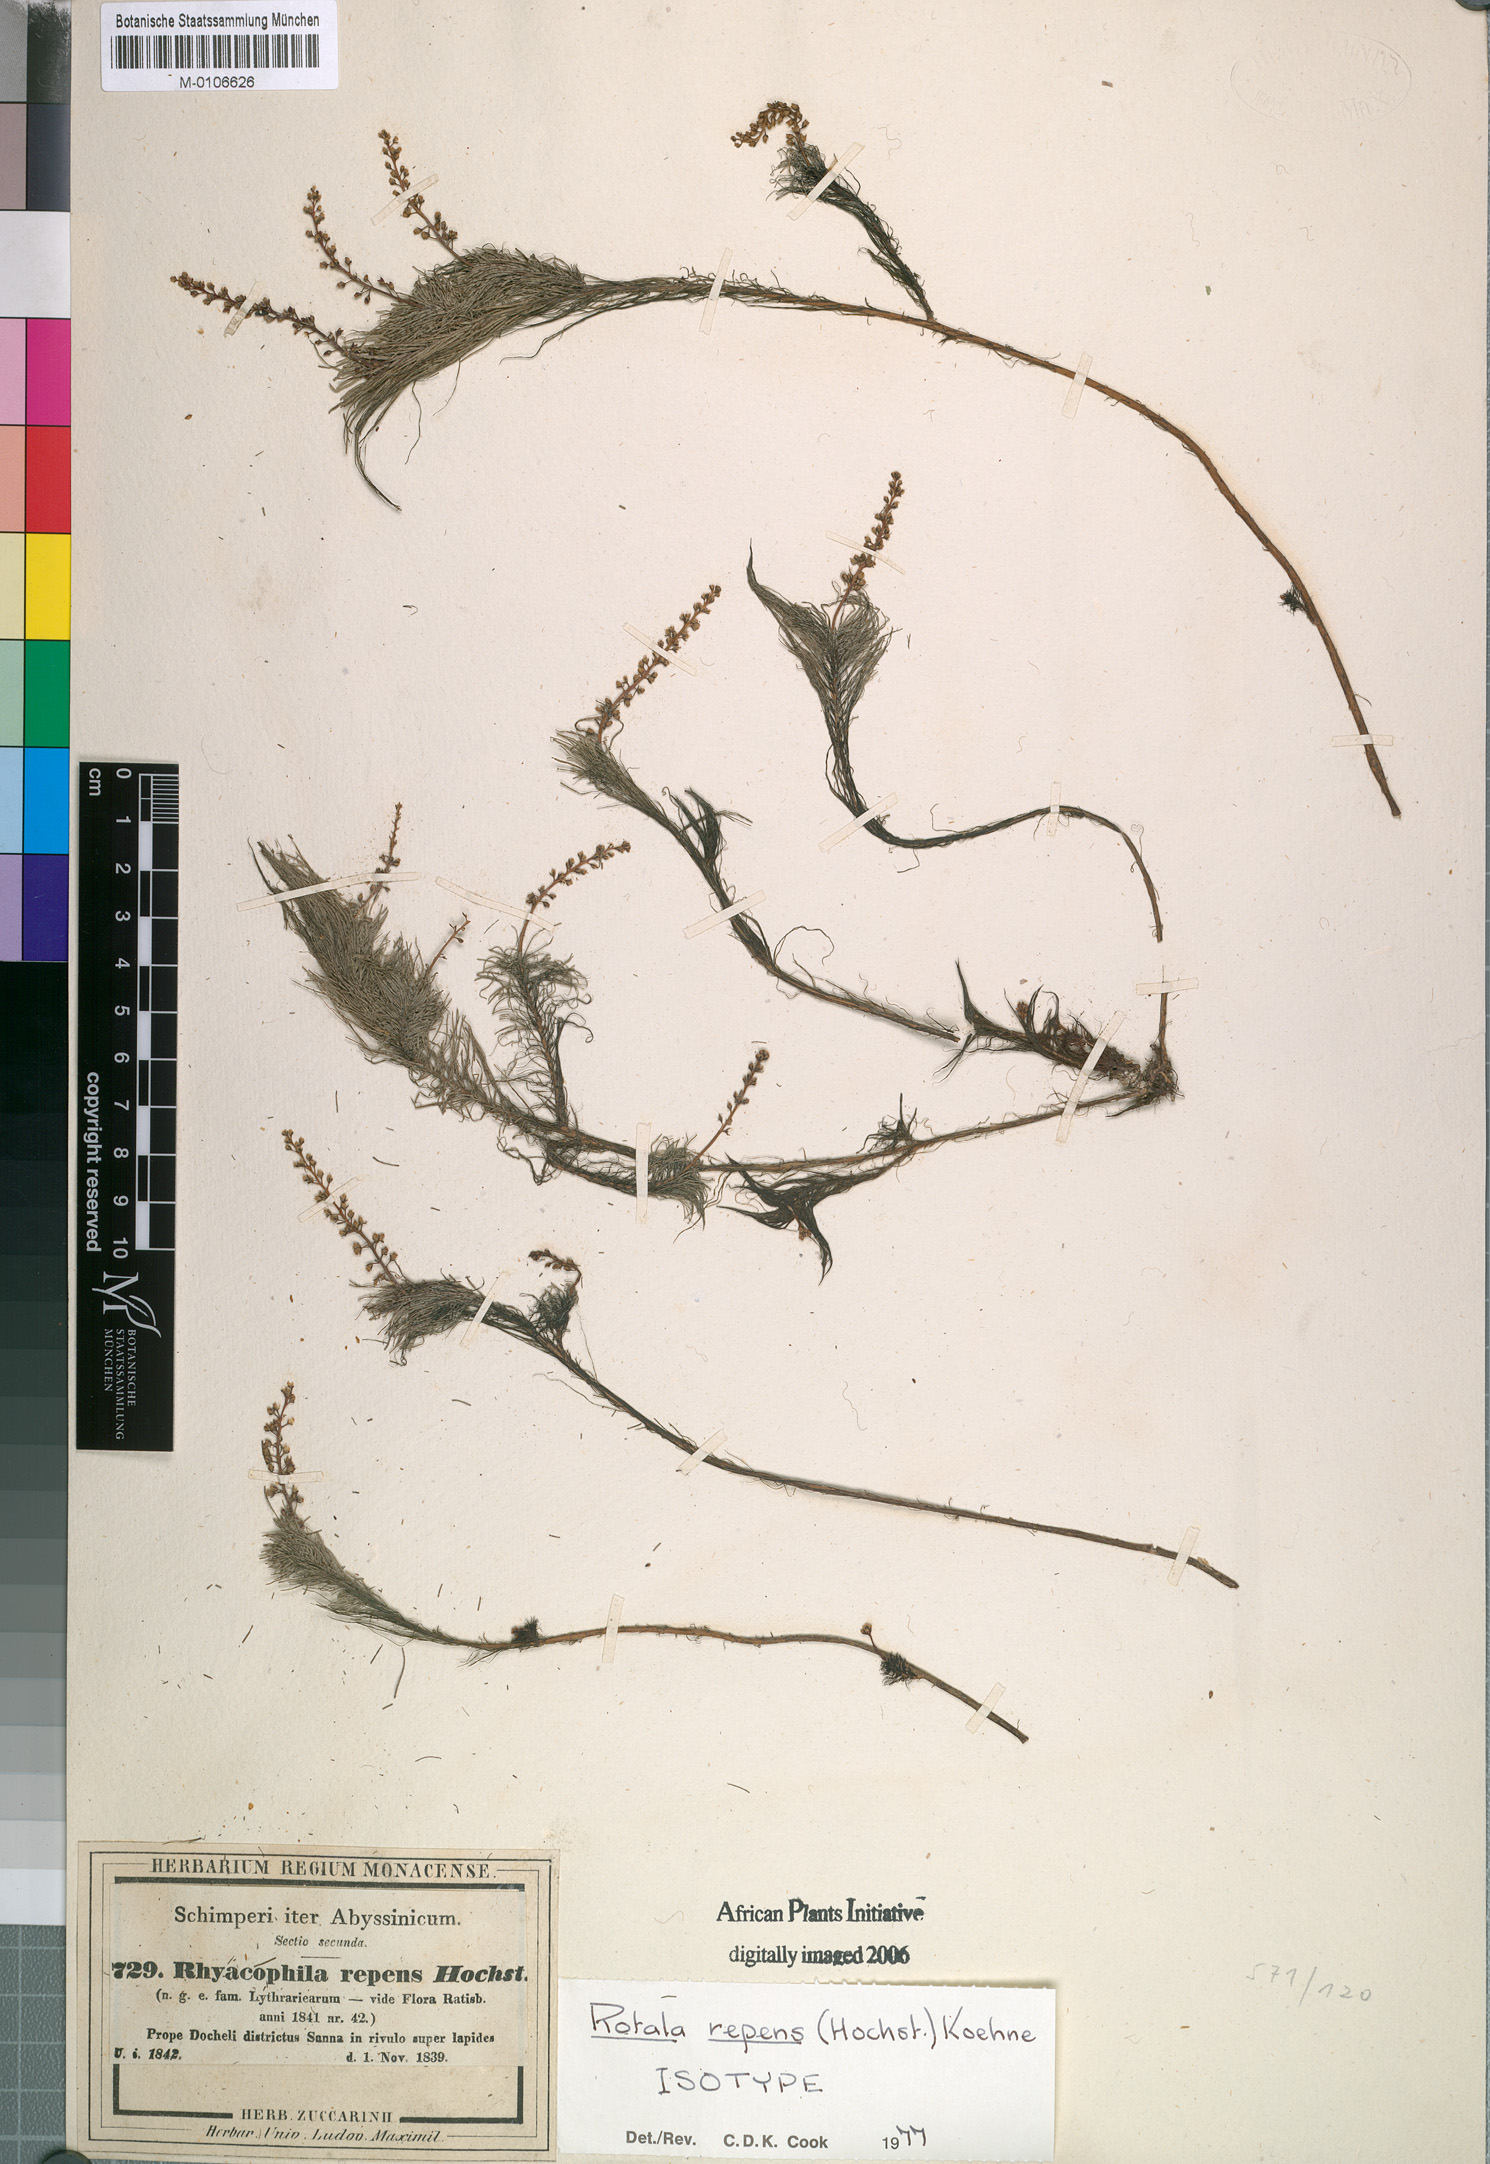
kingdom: Plantae
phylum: Tracheophyta
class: Magnoliopsida
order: Myrtales
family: Lythraceae
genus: Rotala
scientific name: Rotala repens
